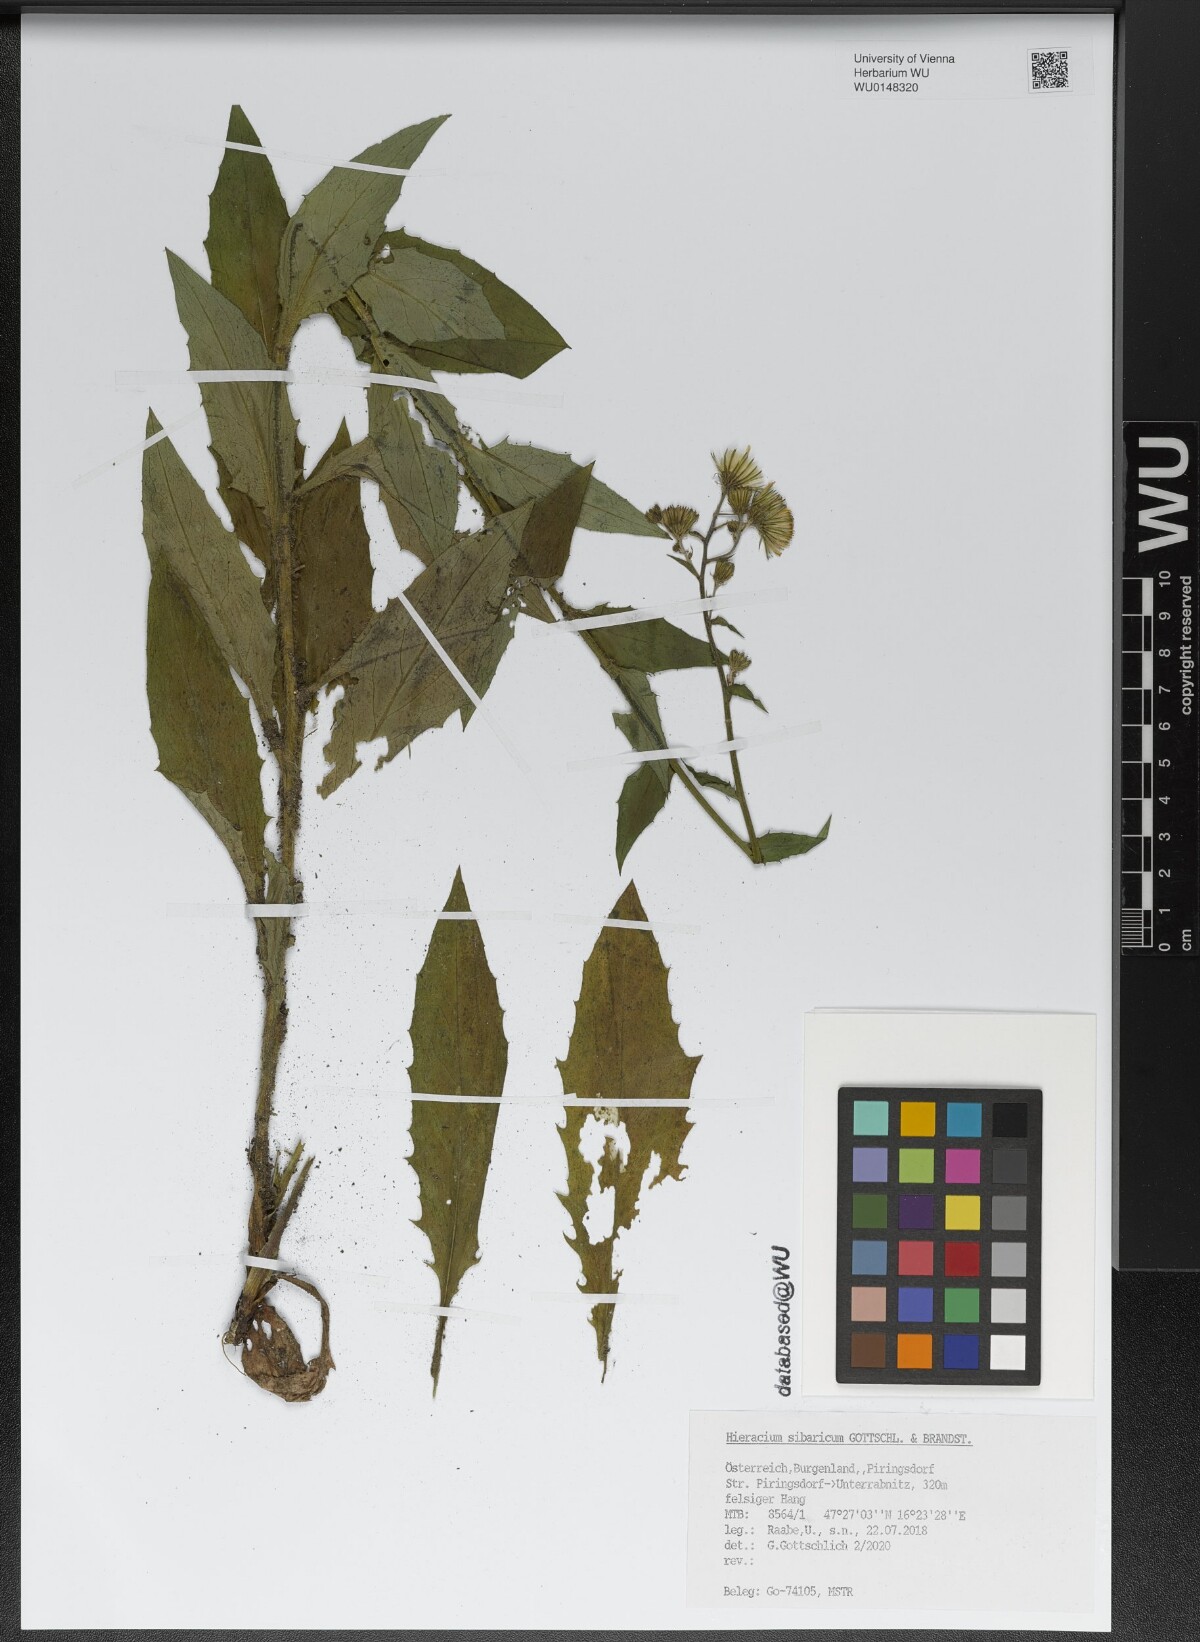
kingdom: Plantae
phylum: Tracheophyta
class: Magnoliopsida
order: Asterales
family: Asteraceae
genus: Hieracium
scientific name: Hieracium
